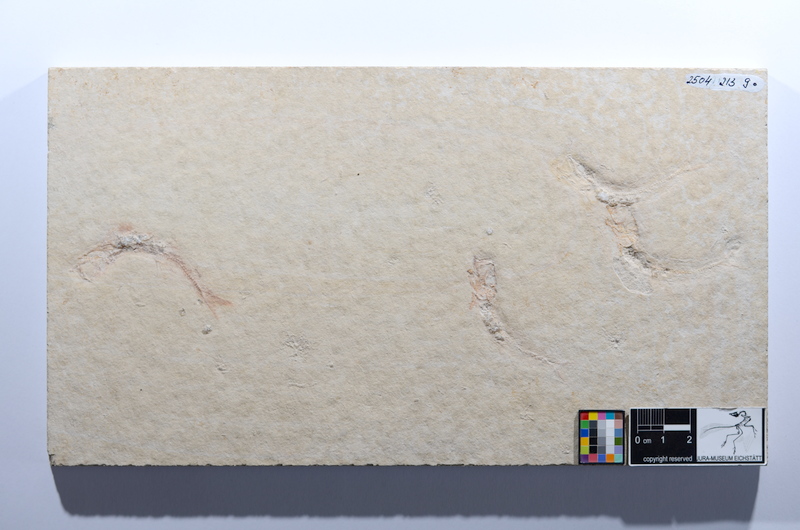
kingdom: Animalia
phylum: Chordata
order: Salmoniformes
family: Orthogonikleithridae
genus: Leptolepides
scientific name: Leptolepides sprattiformis
